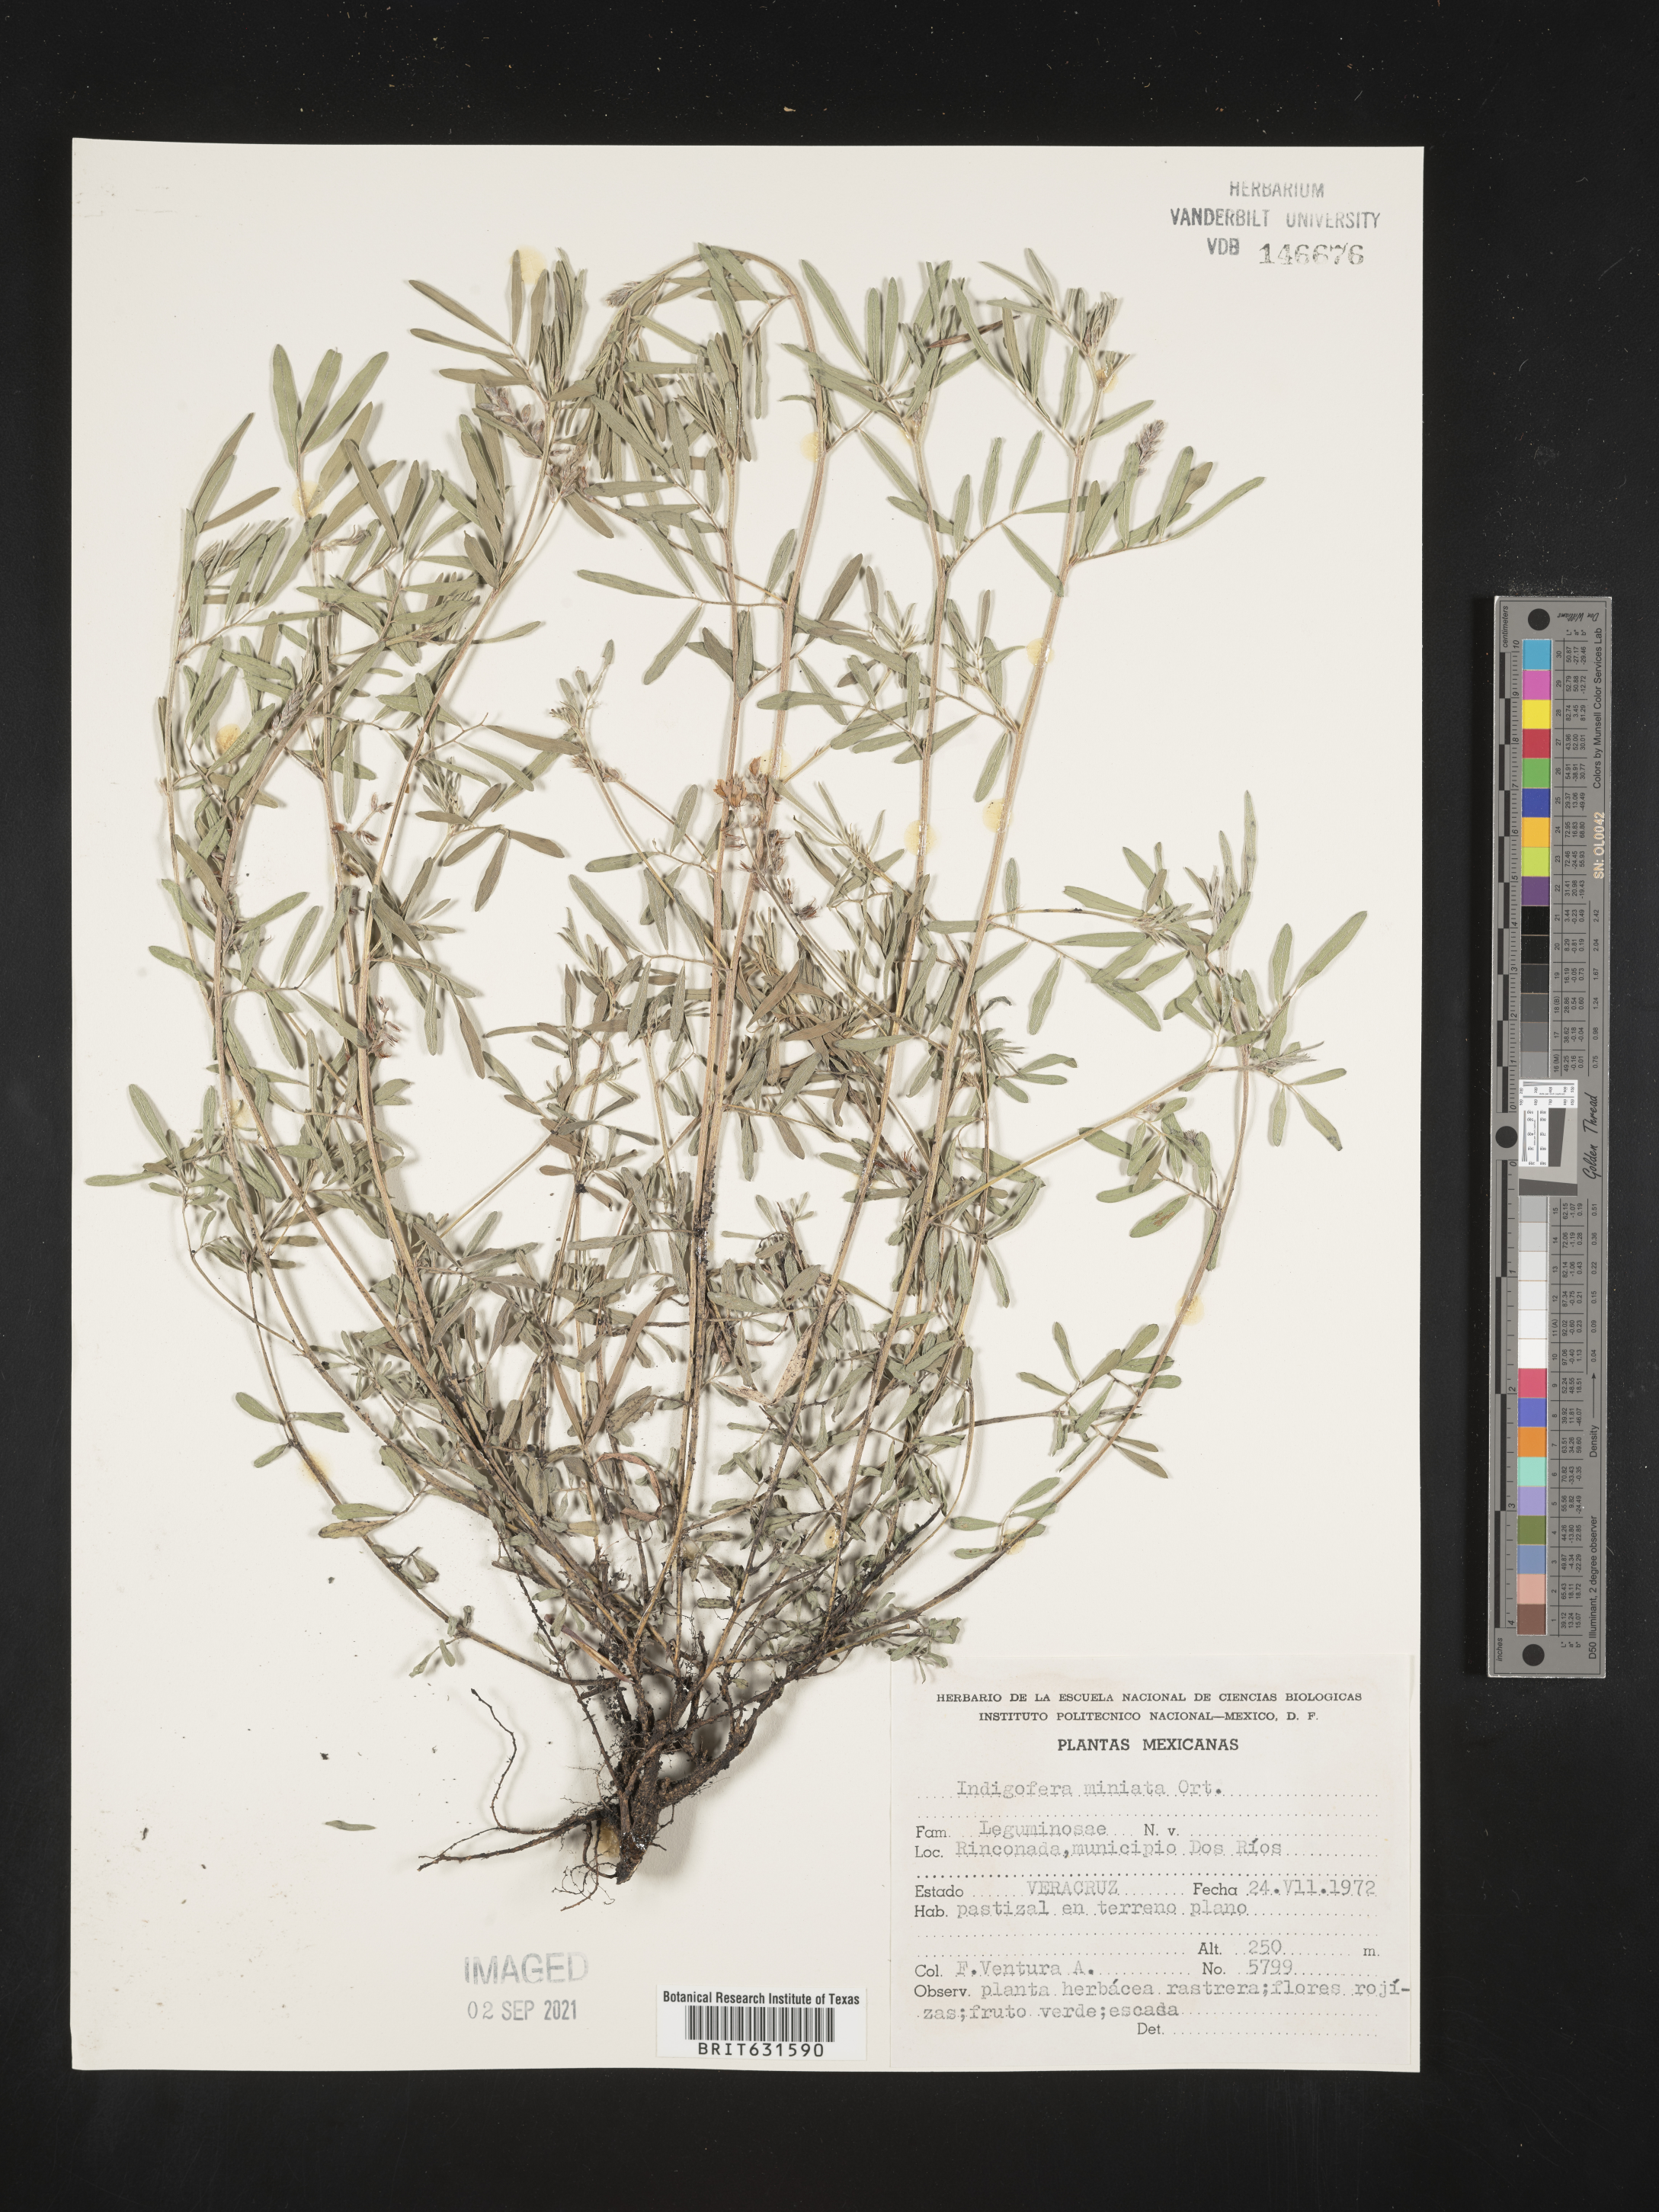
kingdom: Plantae
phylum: Tracheophyta
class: Magnoliopsida
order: Fabales
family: Fabaceae
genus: Indigofera
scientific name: Indigofera
